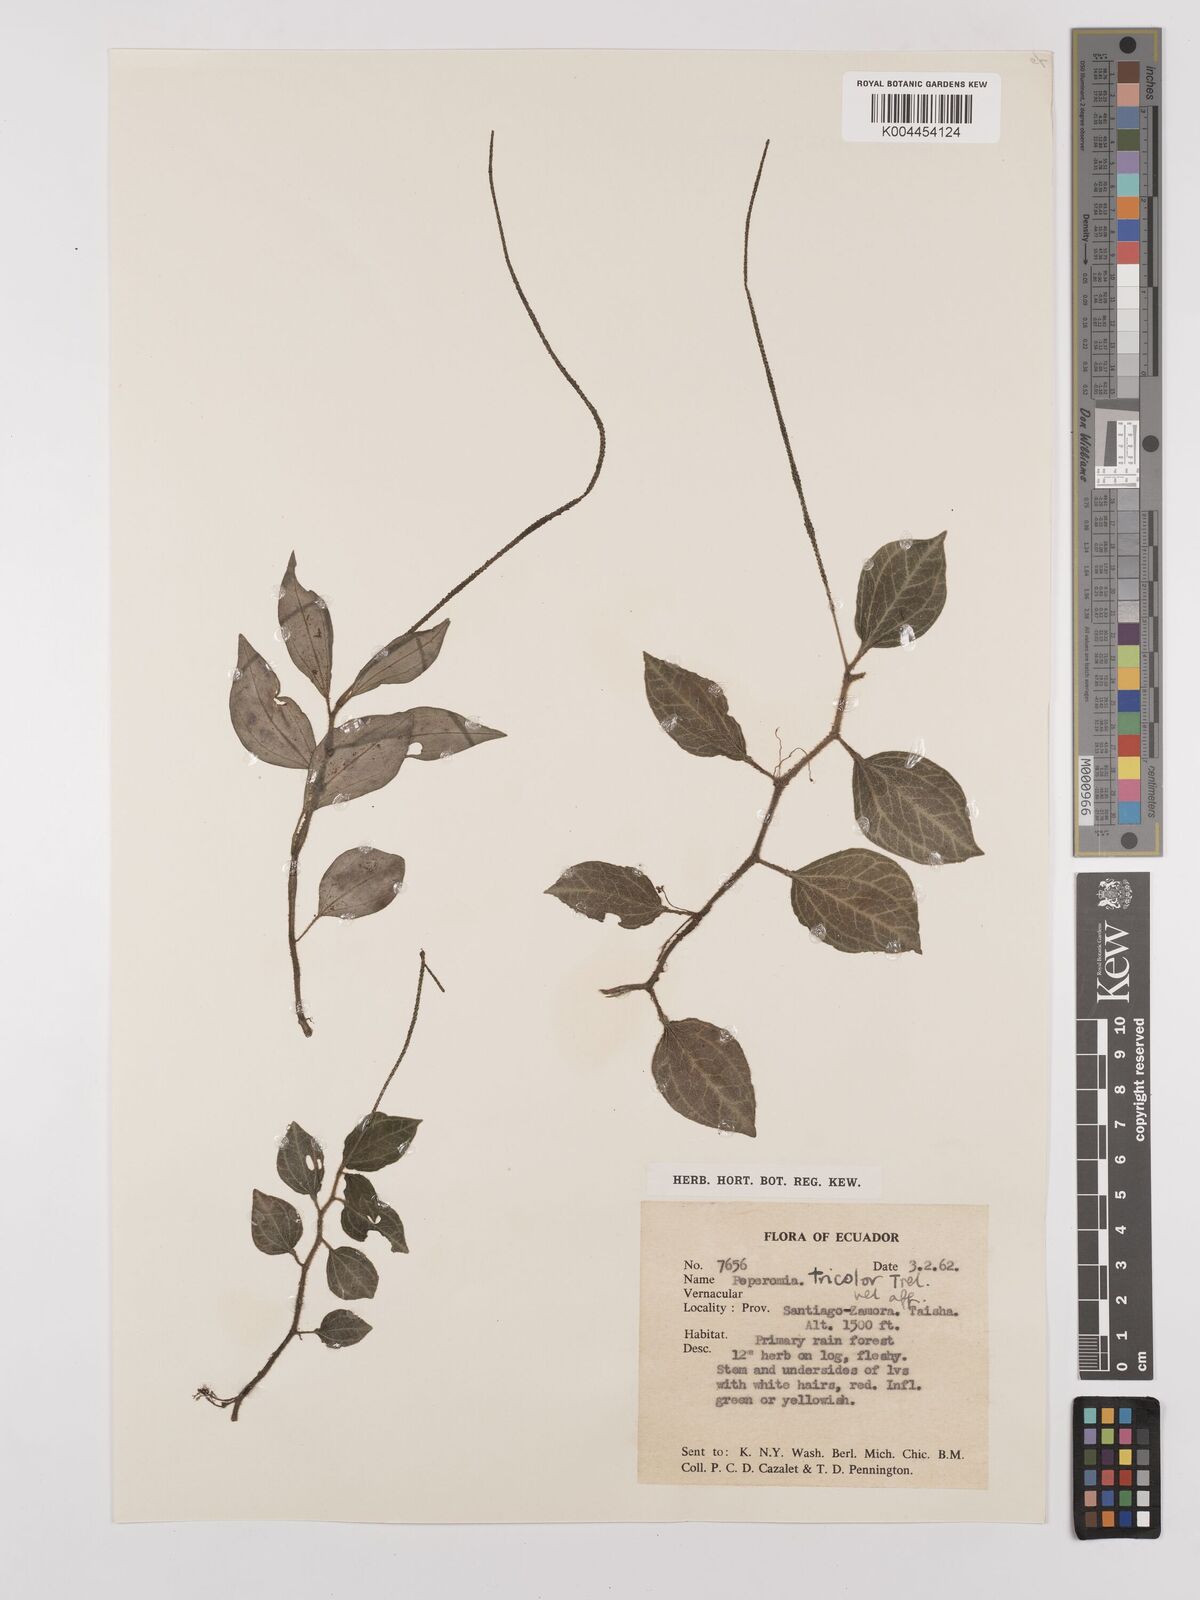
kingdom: Plantae
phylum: Tracheophyta
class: Magnoliopsida
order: Piperales
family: Piperaceae
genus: Peperomia
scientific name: Peperomia tricolor
